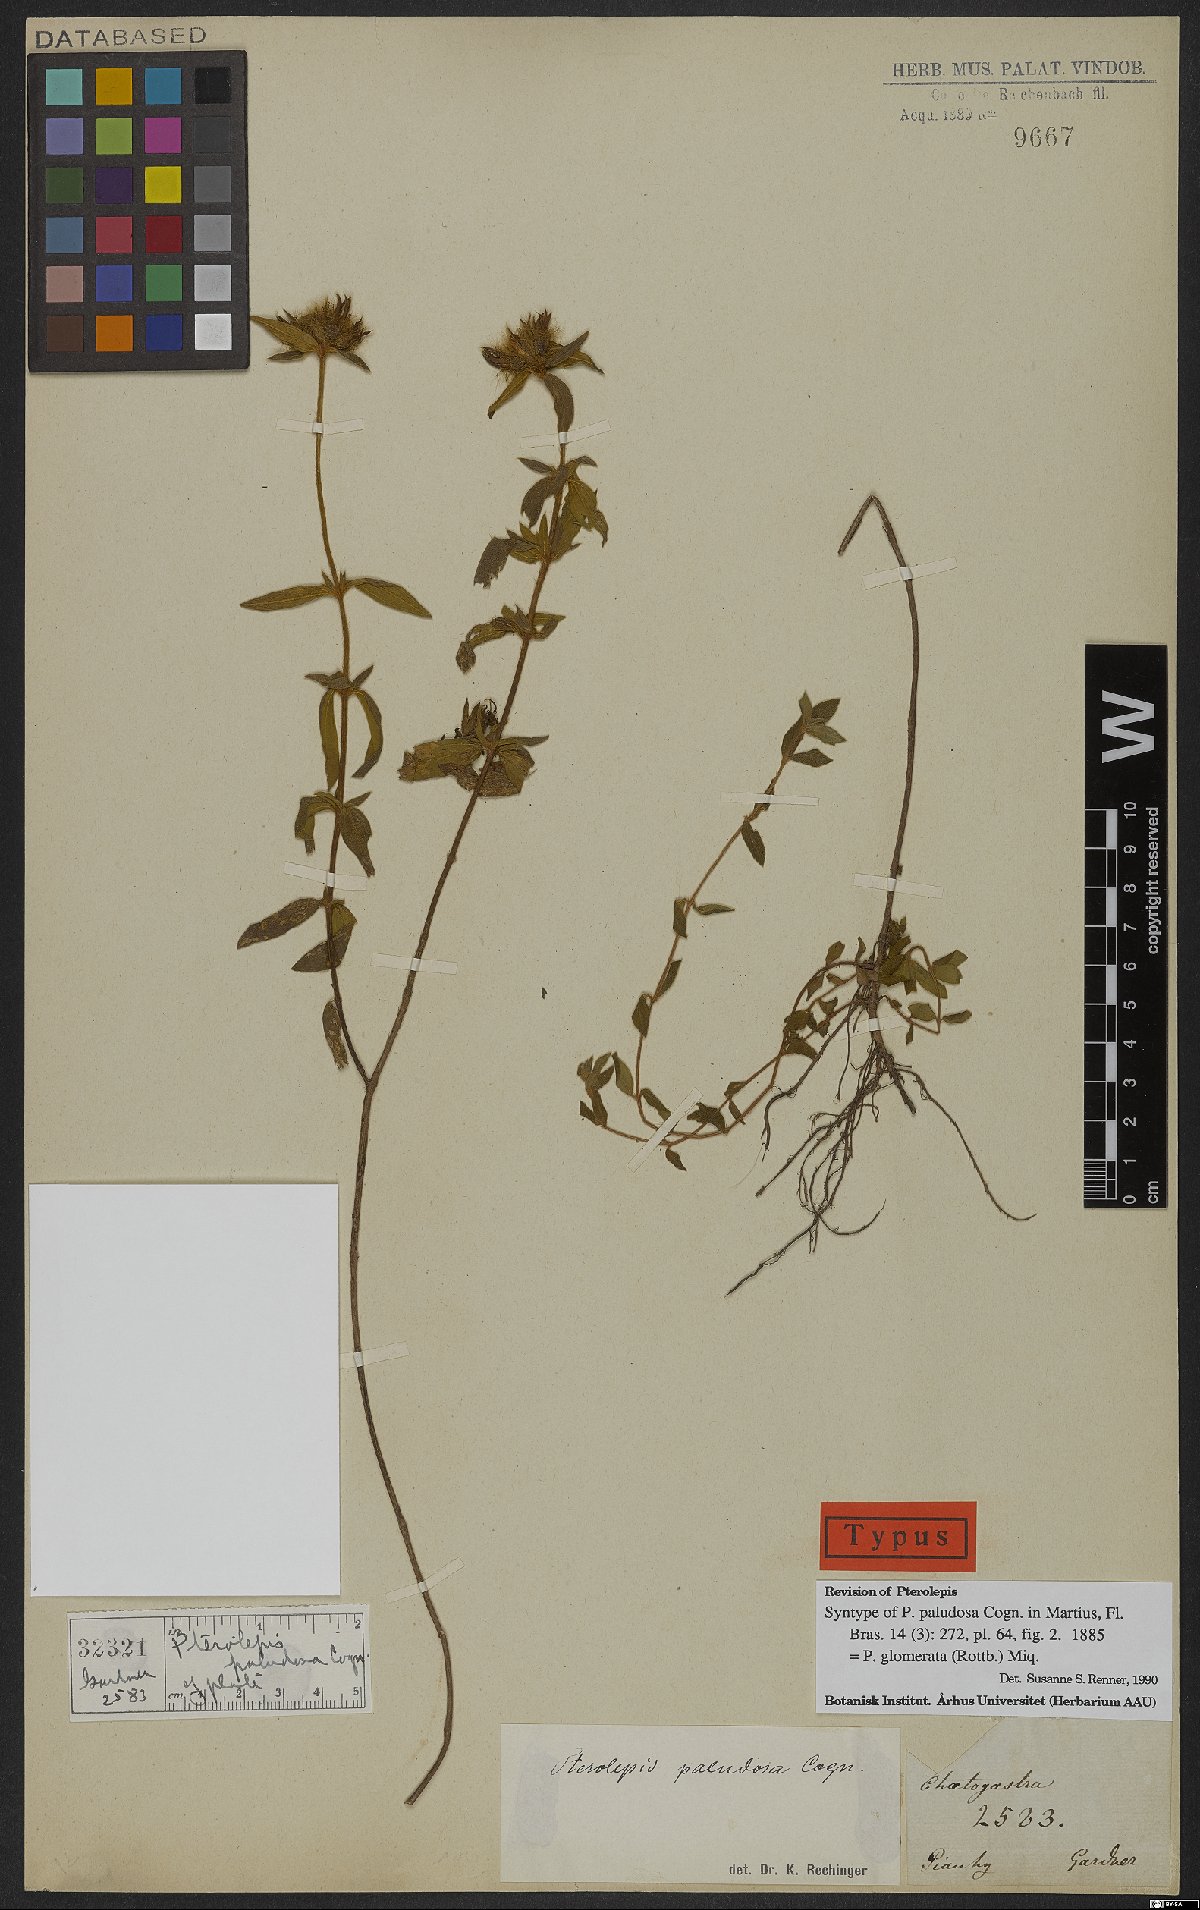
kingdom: Plantae
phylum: Tracheophyta
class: Magnoliopsida
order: Myrtales
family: Melastomataceae
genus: Pterolepis
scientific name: Pterolepis glomerata
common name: False meadowbeauty
